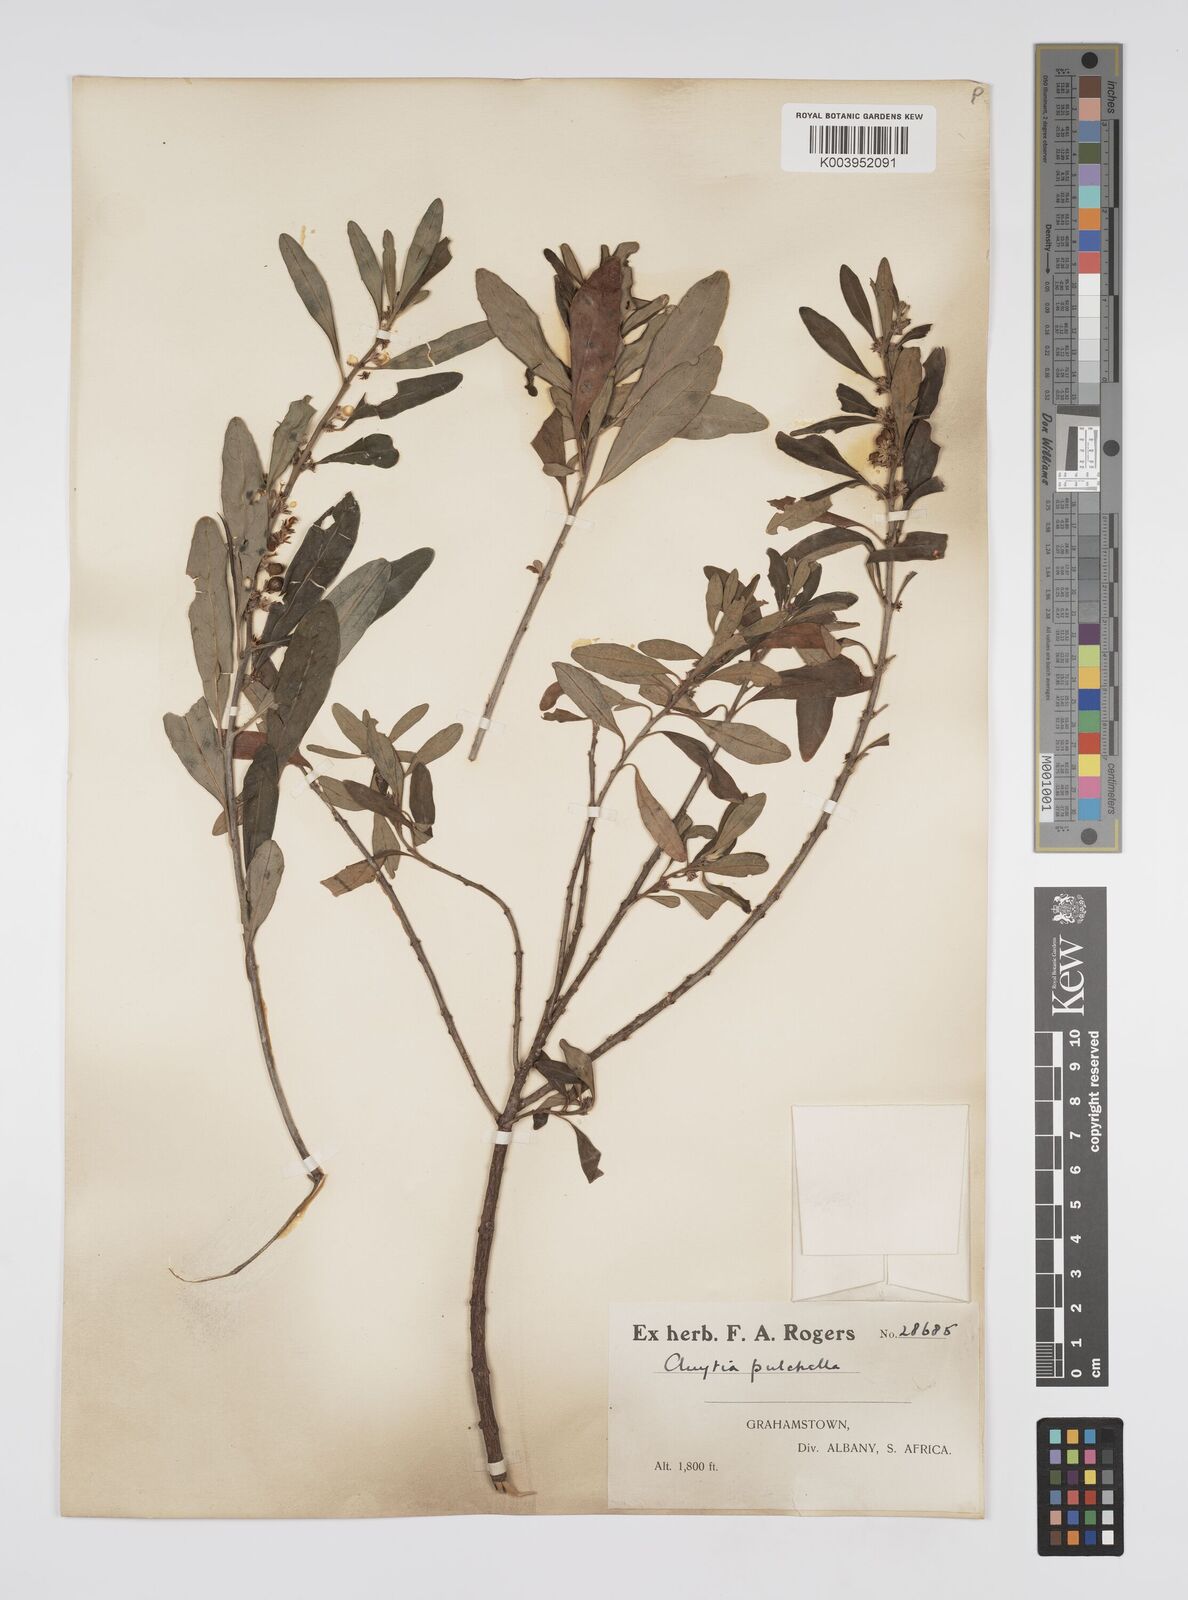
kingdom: Plantae
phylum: Tracheophyta
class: Magnoliopsida
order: Malpighiales
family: Peraceae
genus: Clutia
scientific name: Clutia affinis
